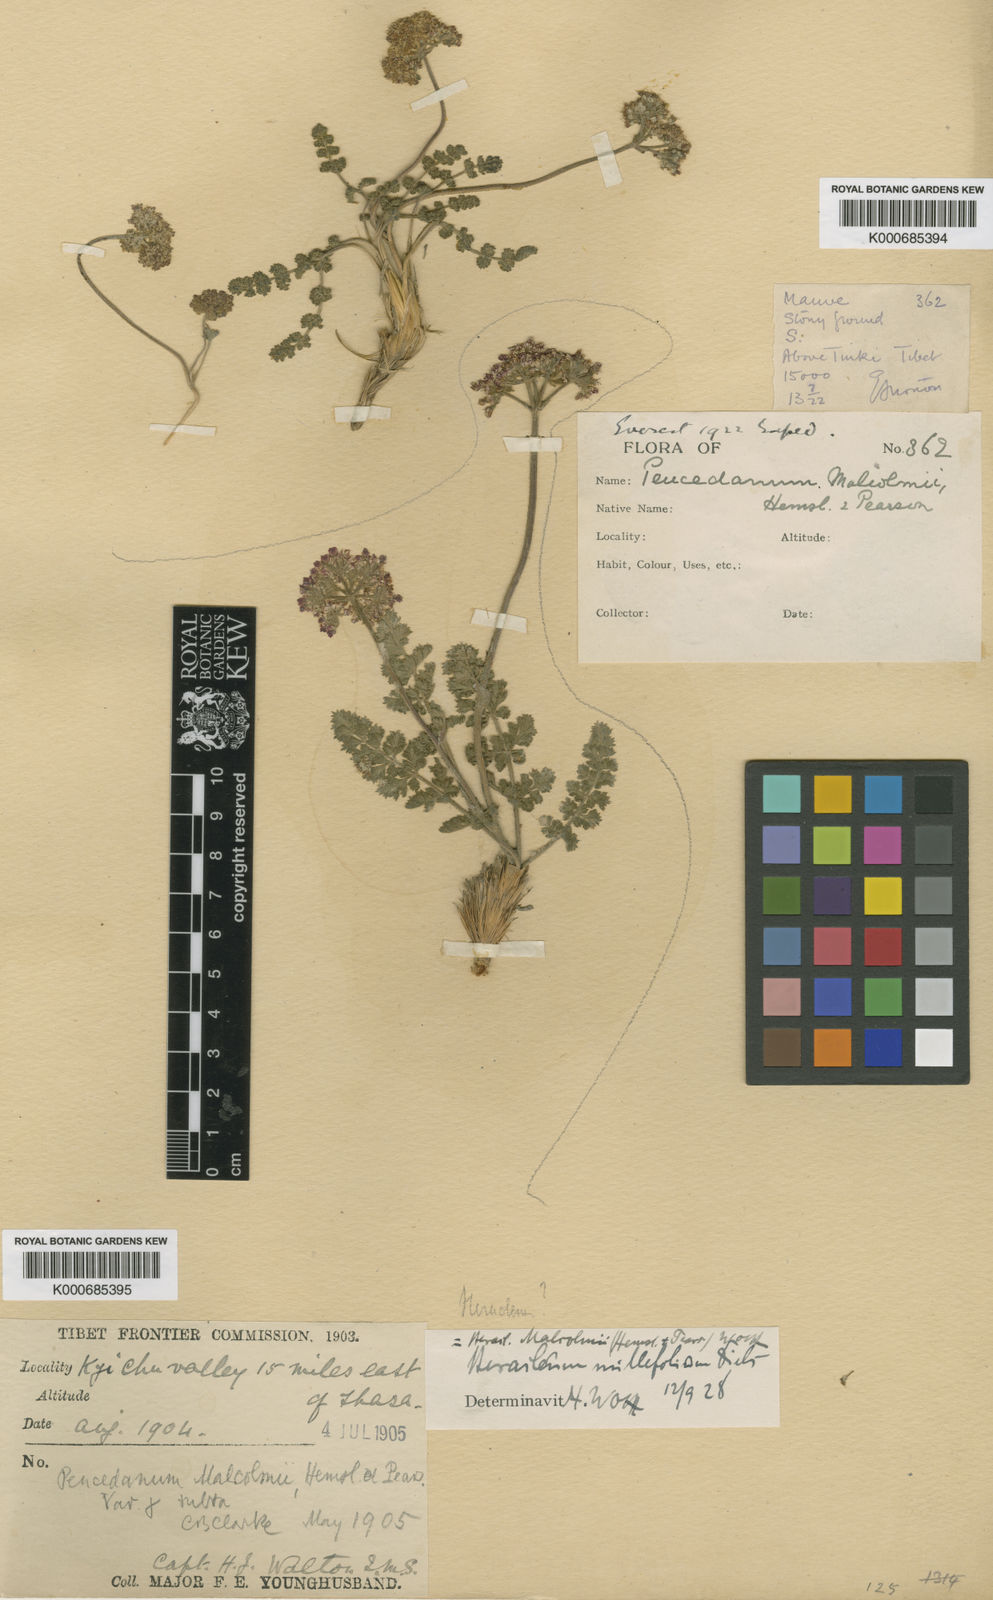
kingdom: Plantae
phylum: Tracheophyta
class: Magnoliopsida
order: Apiales
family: Apiaceae
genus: Semenovia
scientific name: Semenovia malcolmii
